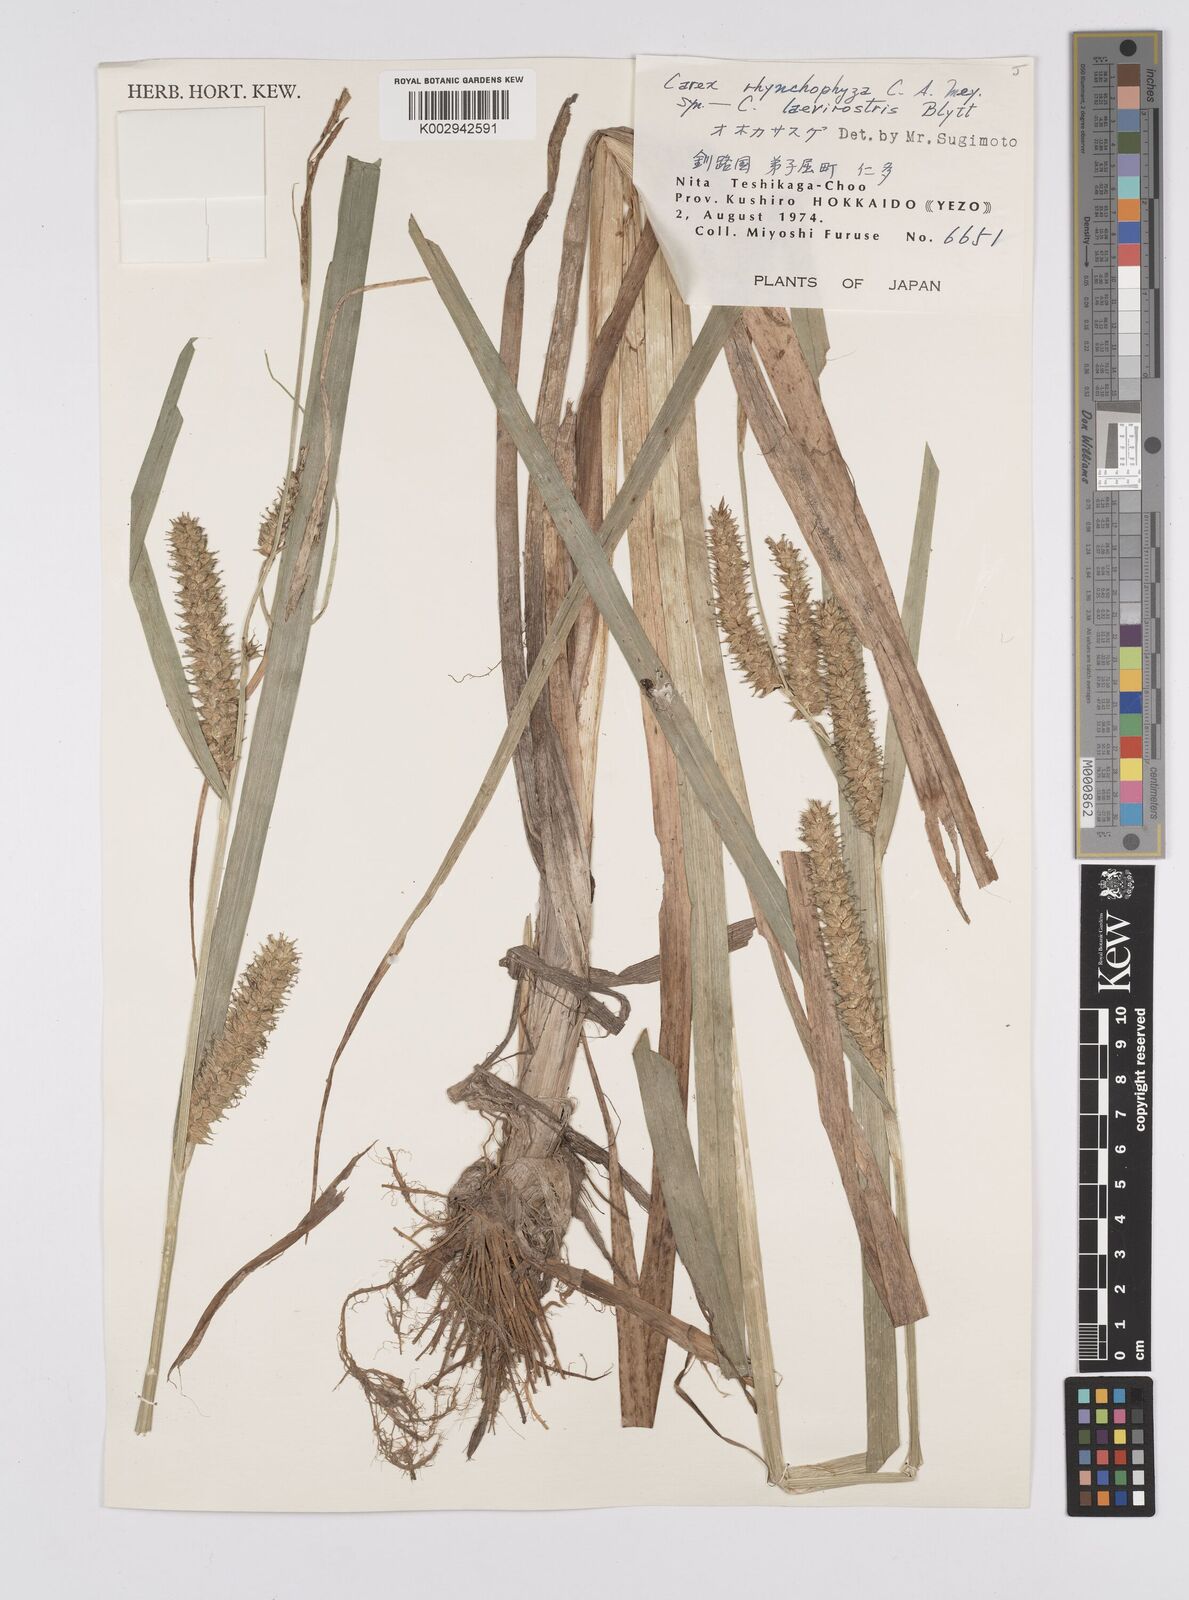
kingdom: Plantae
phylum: Tracheophyta
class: Liliopsida
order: Poales
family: Cyperaceae
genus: Carex
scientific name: Carex utriculata
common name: Beaked sedge
